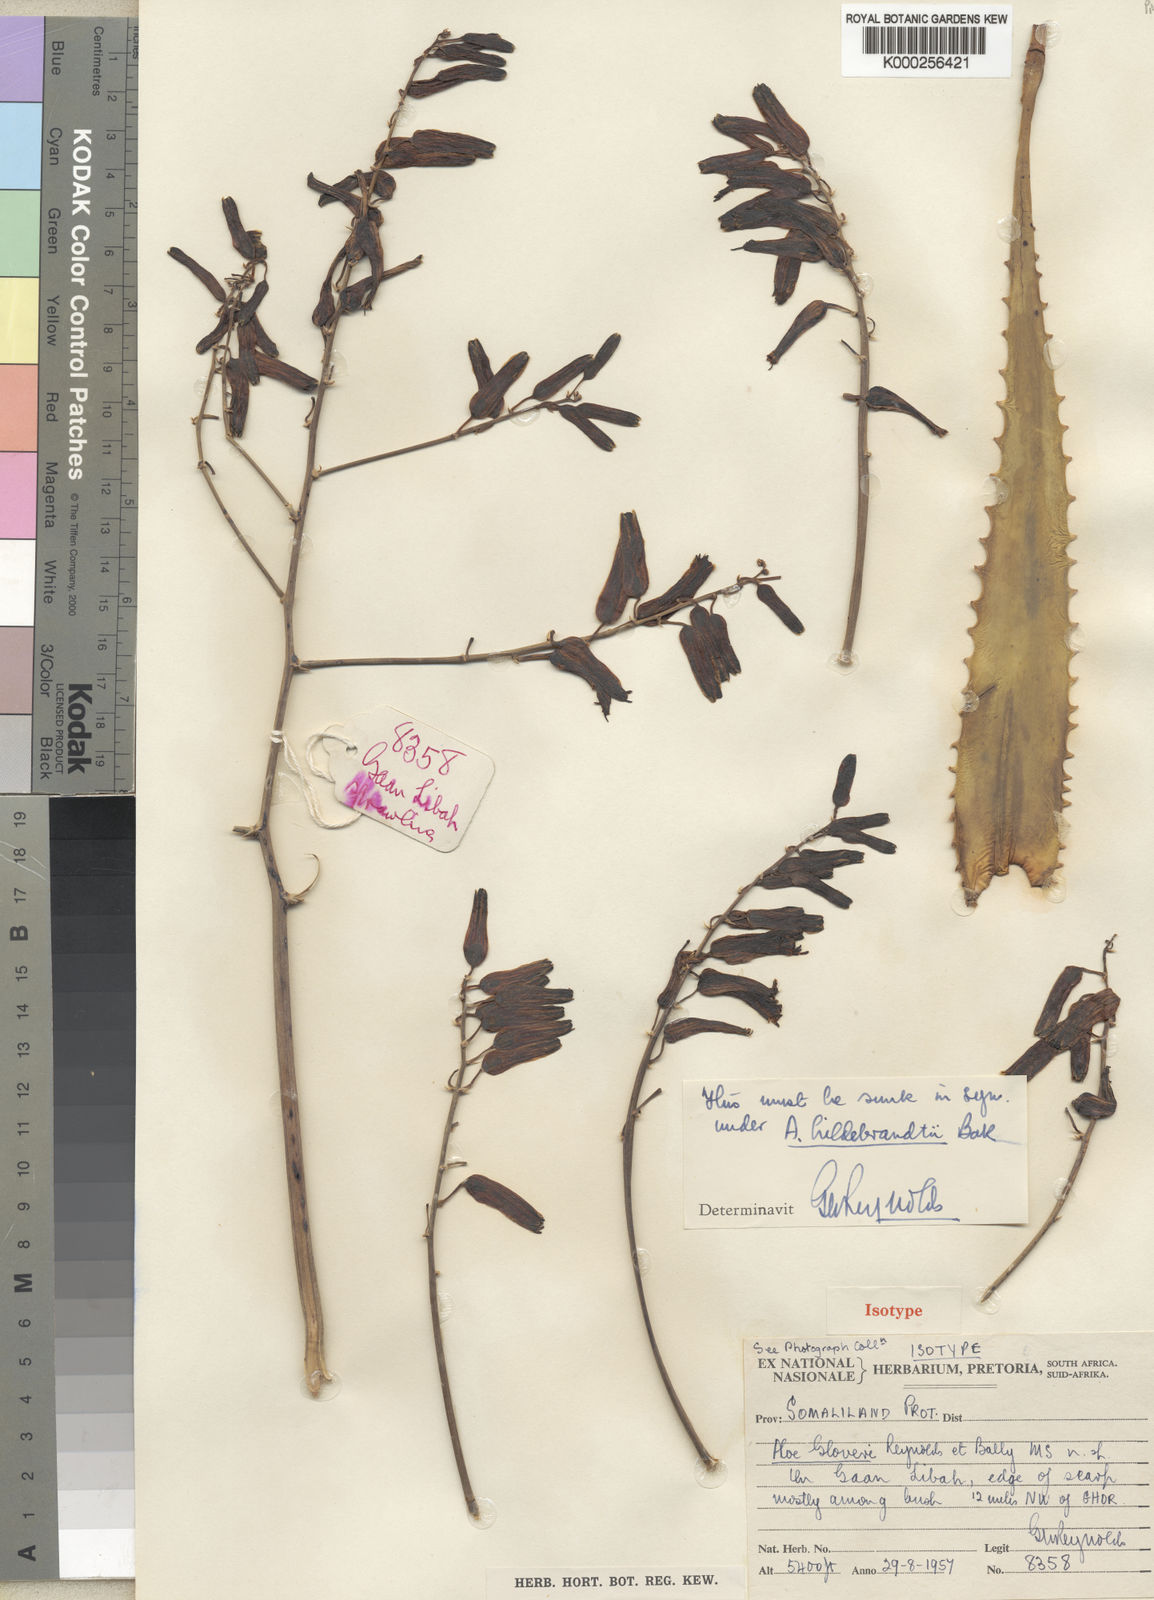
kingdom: Plantae
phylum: Tracheophyta
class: Liliopsida
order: Asparagales
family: Asphodelaceae
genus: Aloe
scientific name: Aloe hildebrandtii
